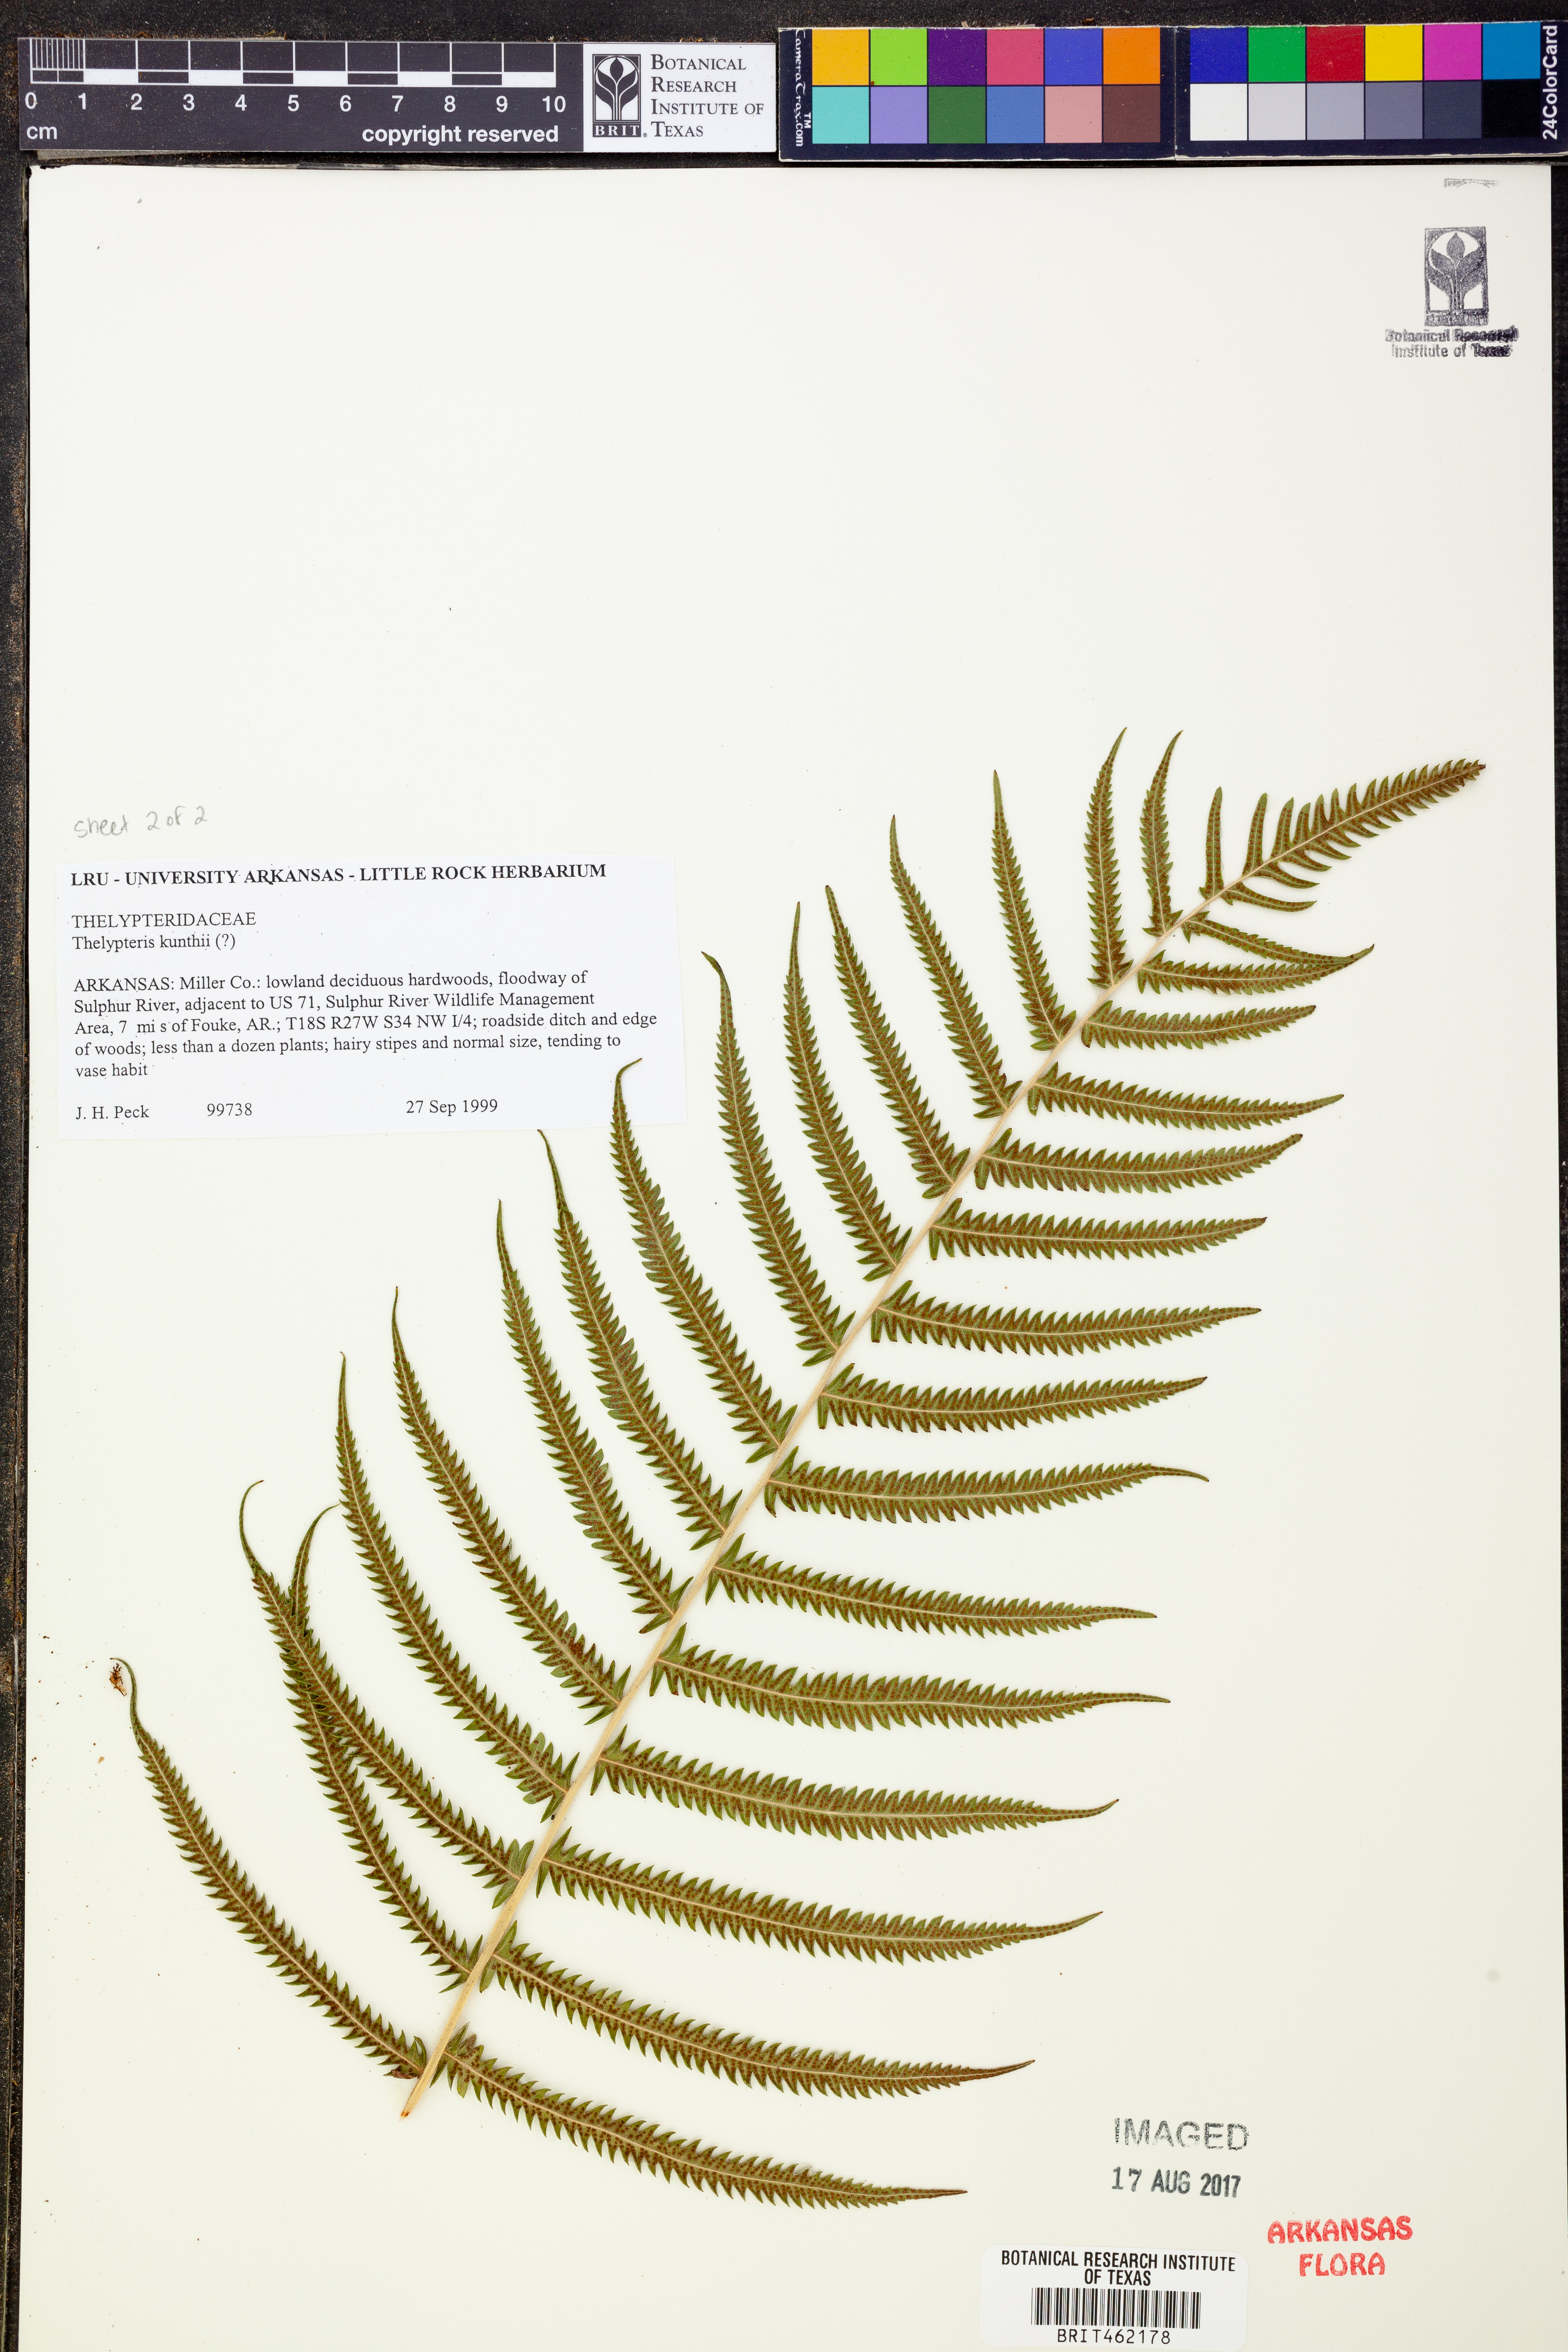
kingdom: Plantae
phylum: Tracheophyta
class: Polypodiopsida
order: Polypodiales
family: Thelypteridaceae
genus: Pelazoneuron
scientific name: Pelazoneuron kunthii
